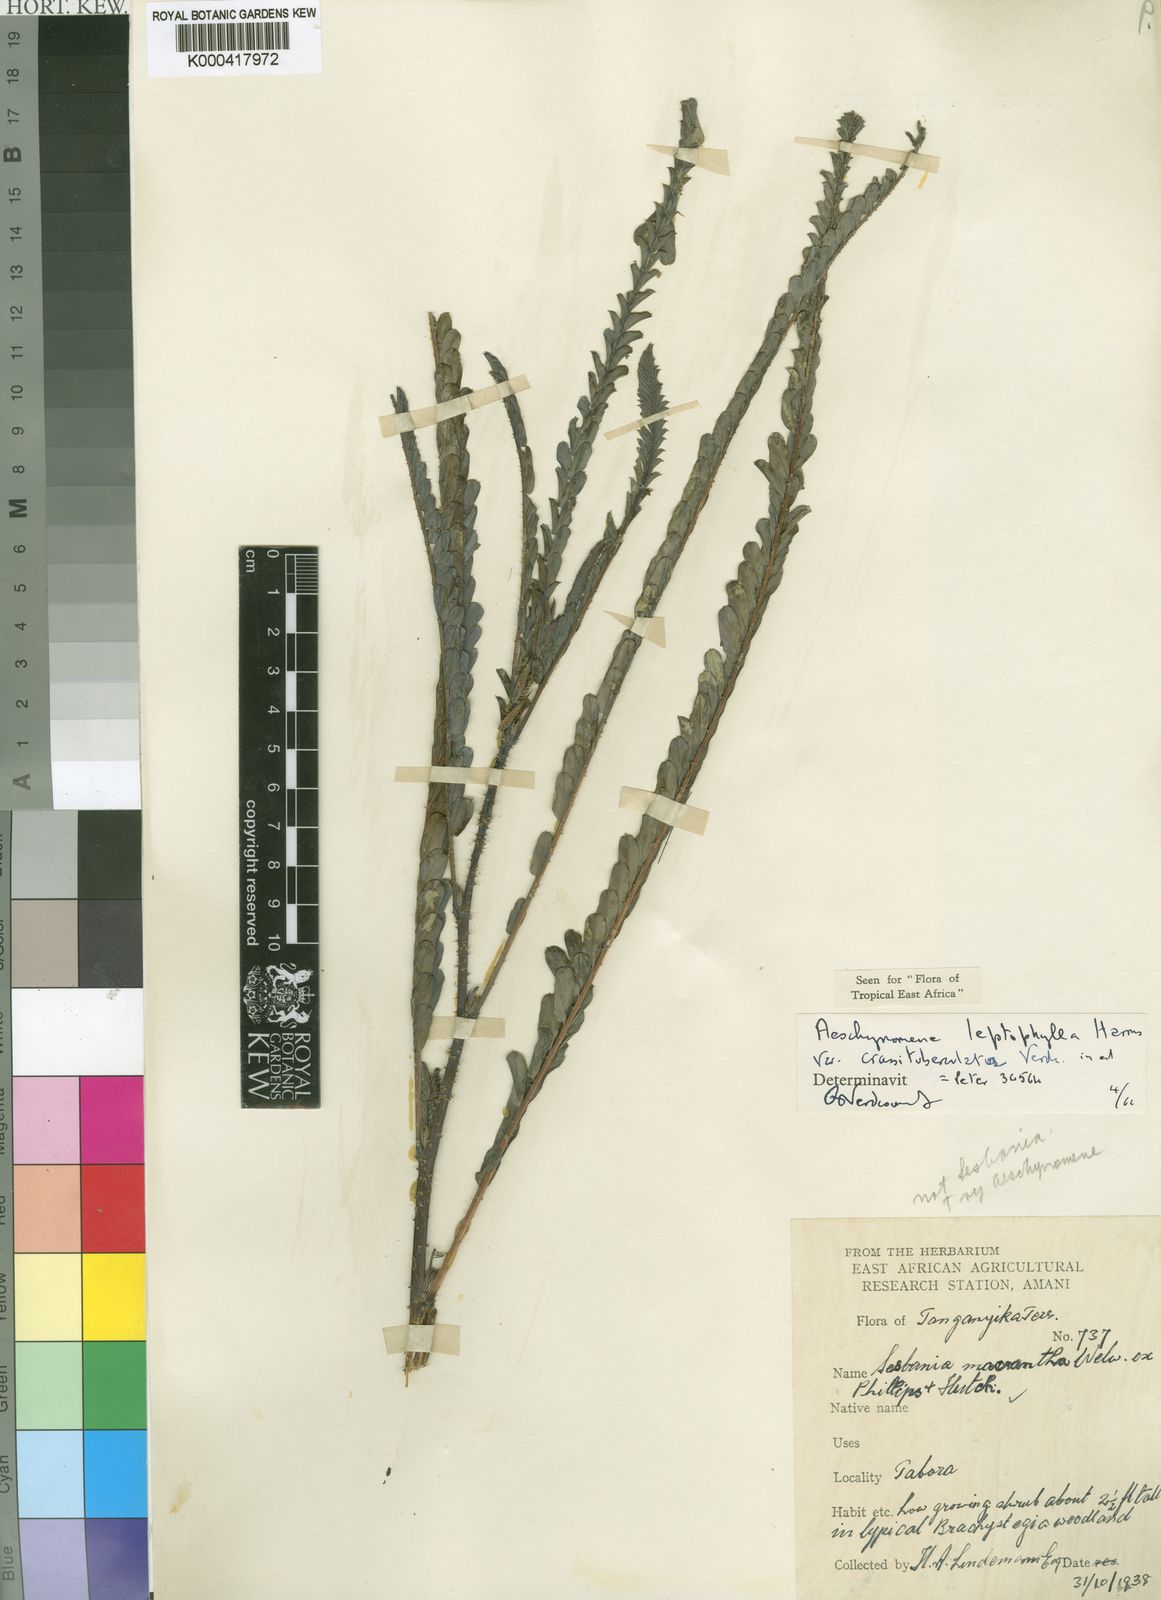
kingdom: Plantae
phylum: Tracheophyta
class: Magnoliopsida
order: Fabales
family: Fabaceae
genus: Aeschynomene
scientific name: Aeschynomene leptophylla
